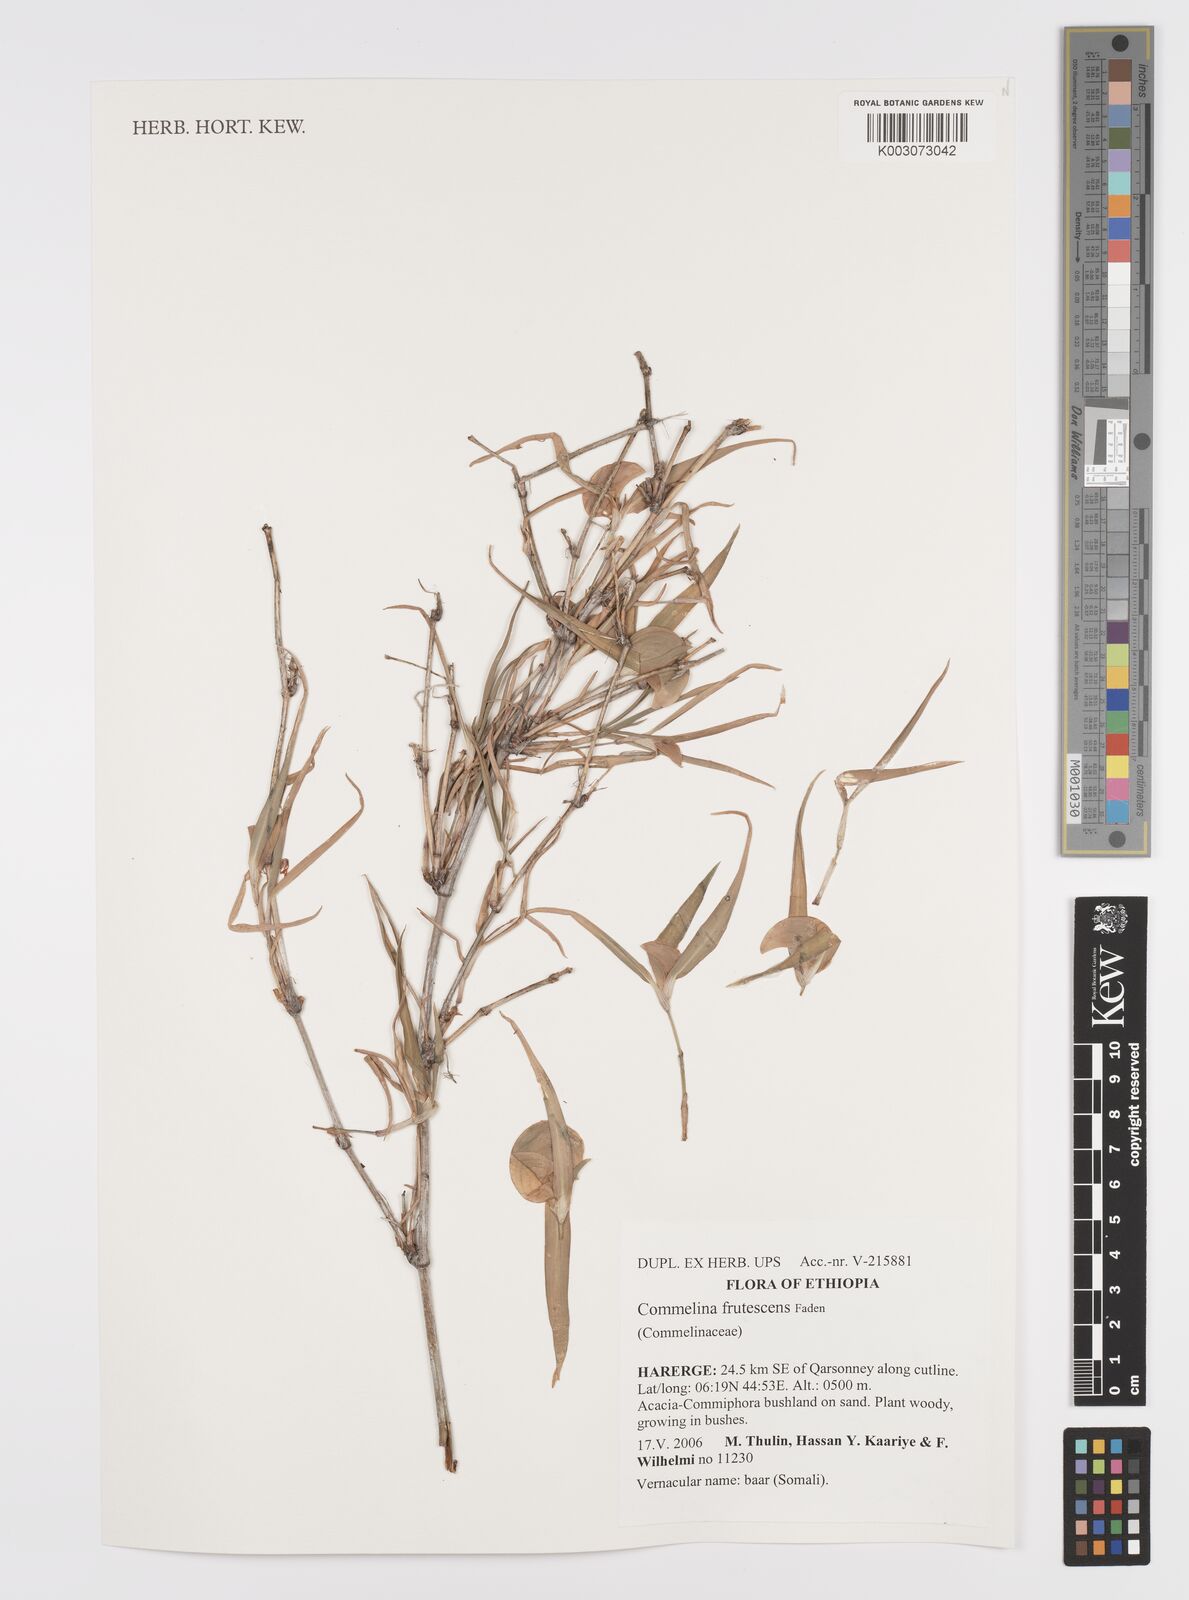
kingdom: Plantae
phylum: Tracheophyta
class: Liliopsida
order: Commelinales
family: Commelinaceae
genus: Commelina
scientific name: Commelina frutescens
